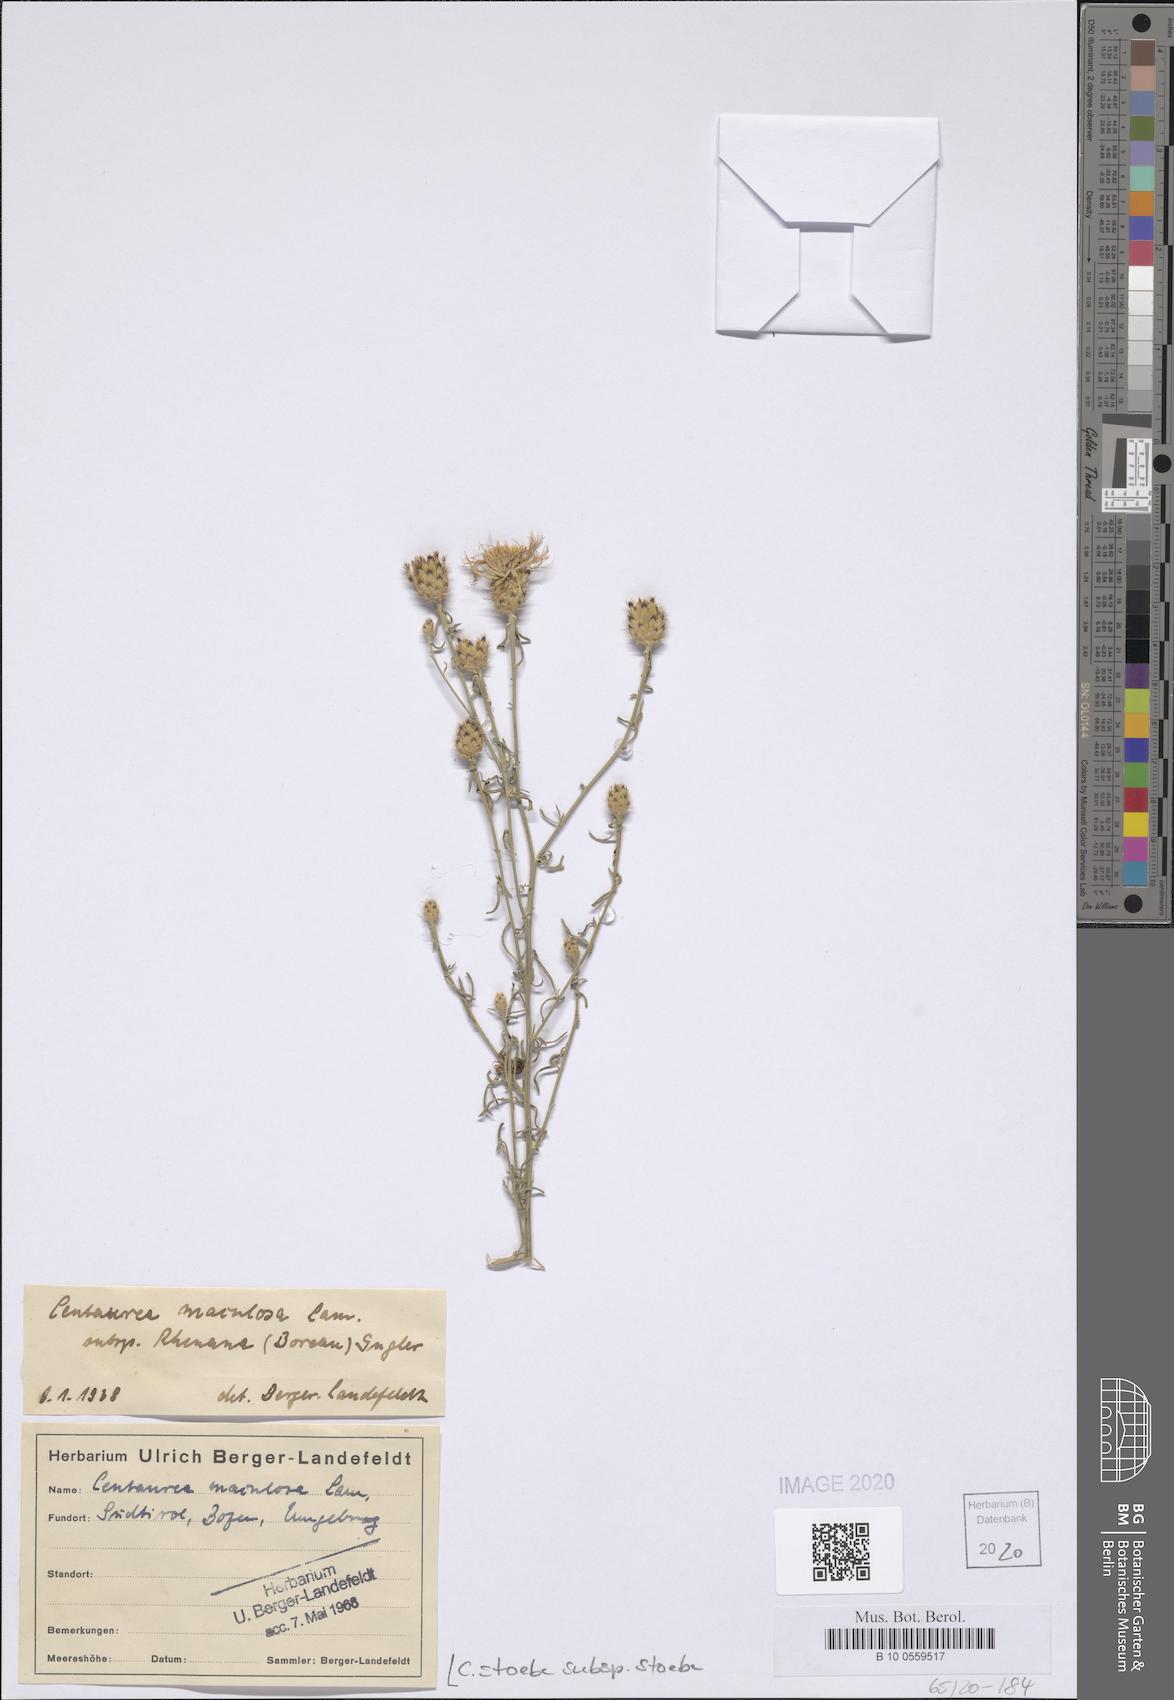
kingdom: Plantae
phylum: Tracheophyta
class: Magnoliopsida
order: Asterales
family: Asteraceae
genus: Centaurea
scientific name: Centaurea stoebe
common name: Spotted knapweed
